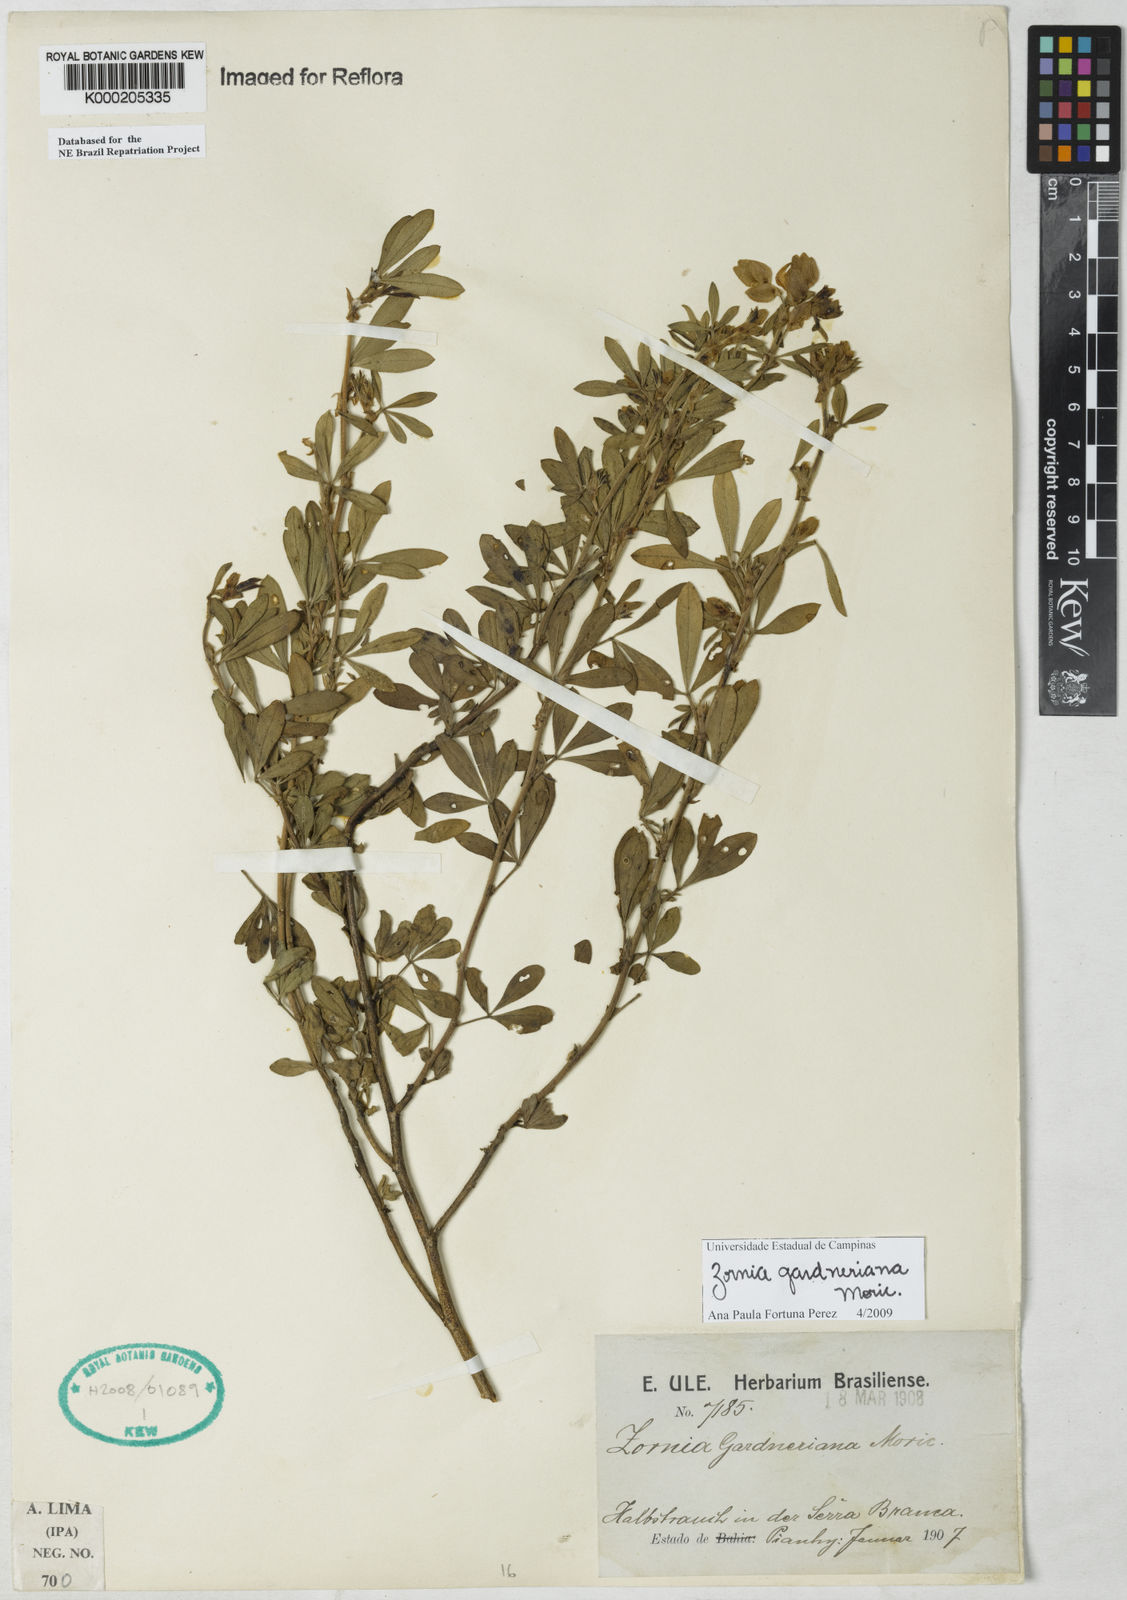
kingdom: Plantae
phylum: Tracheophyta
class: Magnoliopsida
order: Fabales
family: Fabaceae
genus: Zornia
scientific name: Zornia gardneriana
